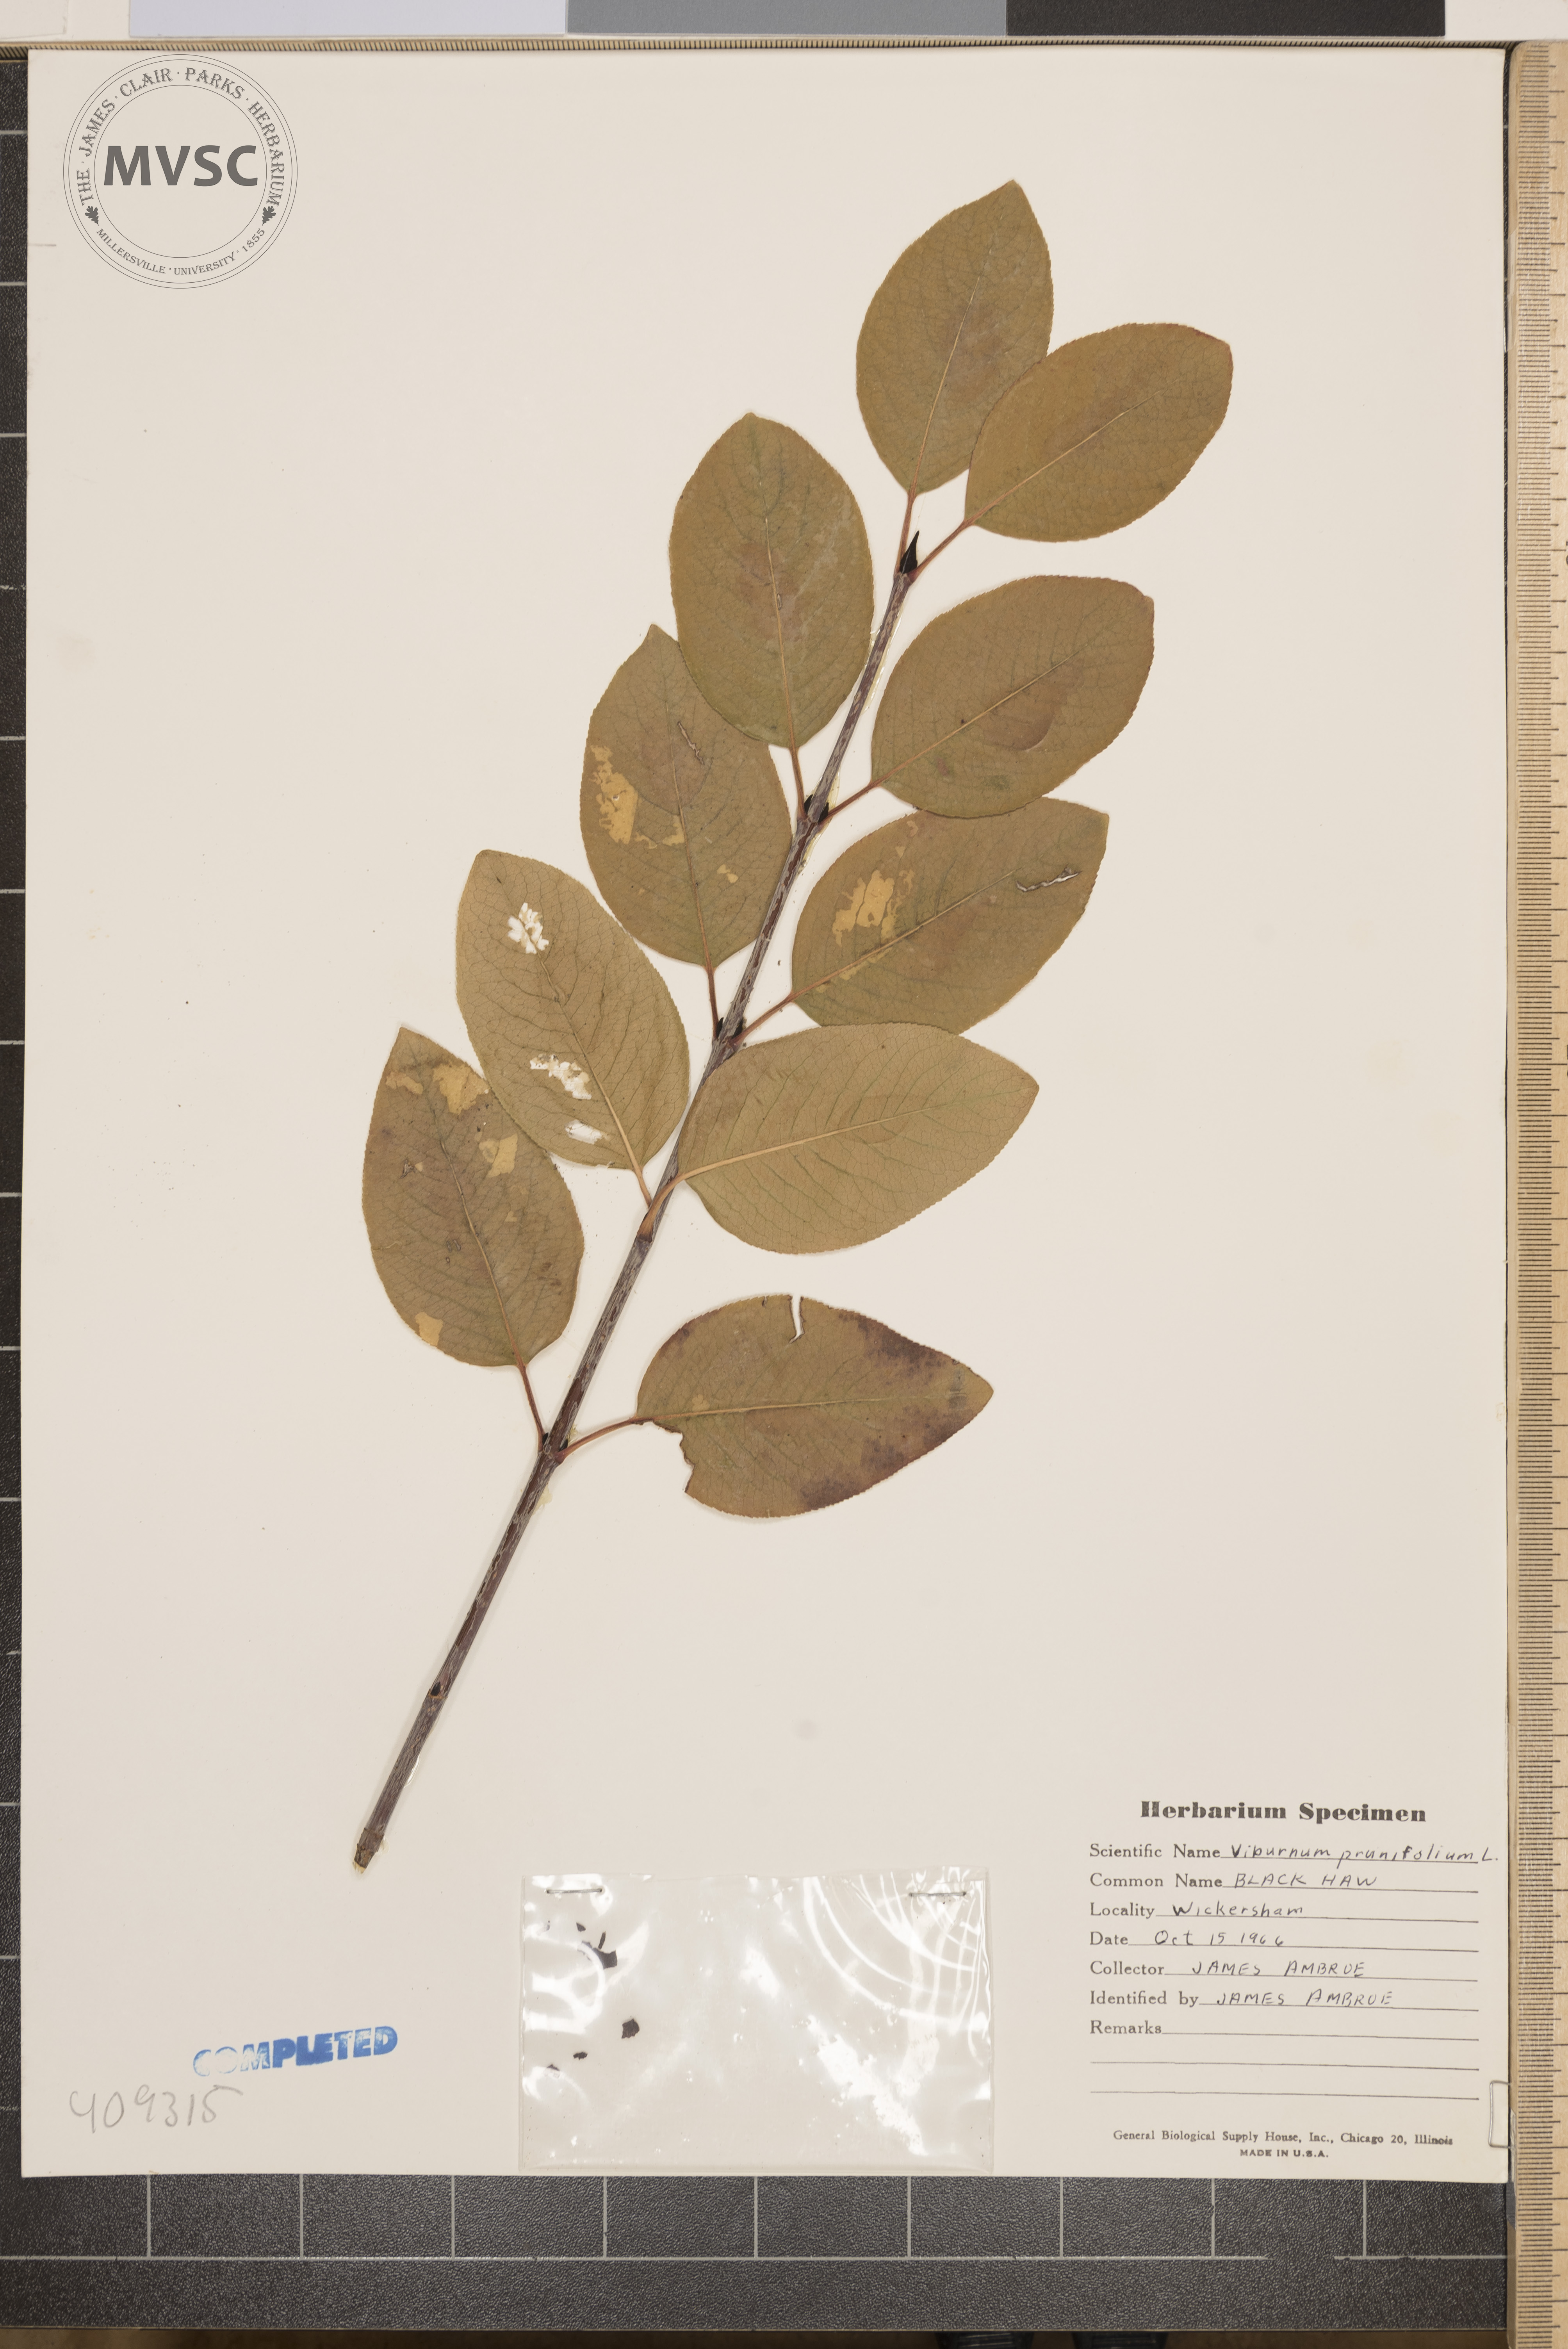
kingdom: Plantae
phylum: Tracheophyta
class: Magnoliopsida
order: Dipsacales
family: Viburnaceae
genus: Viburnum
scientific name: Viburnum prunifolium
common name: blackhaw
